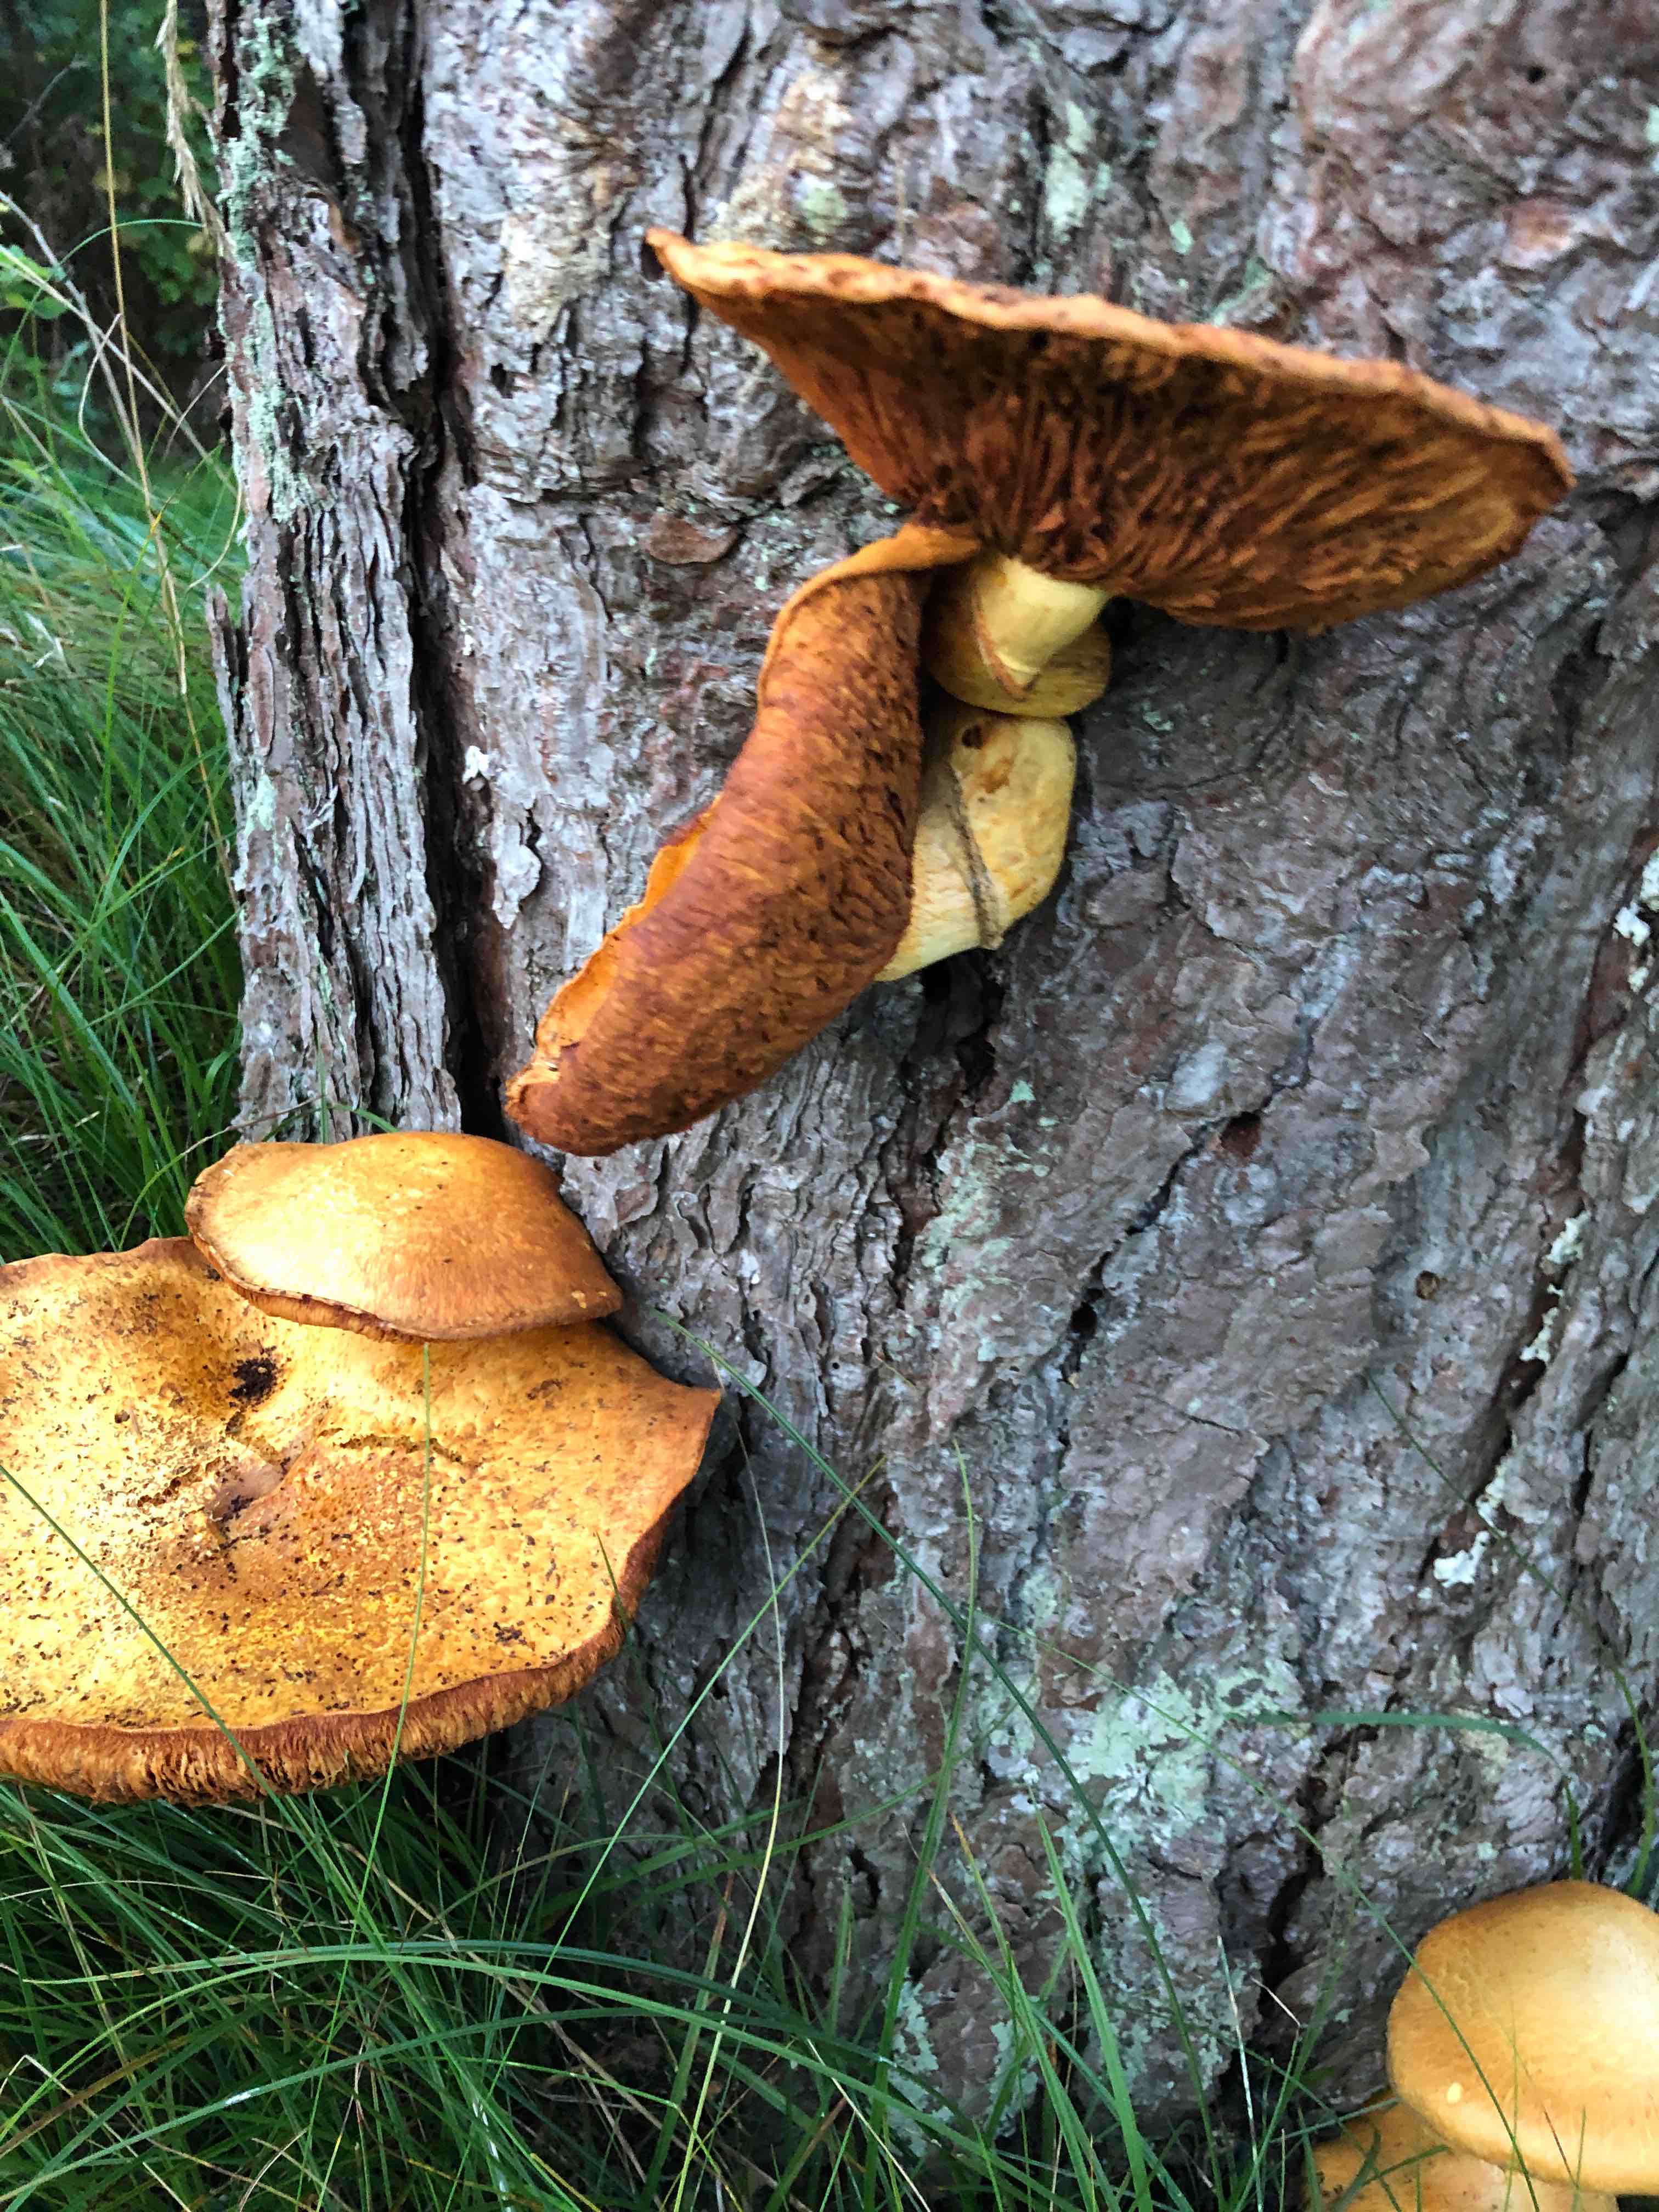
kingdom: Fungi
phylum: Basidiomycota
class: Agaricomycetes
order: Agaricales
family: Hymenogastraceae
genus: Gymnopilus
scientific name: Gymnopilus spectabilis
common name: fibret flammehat
